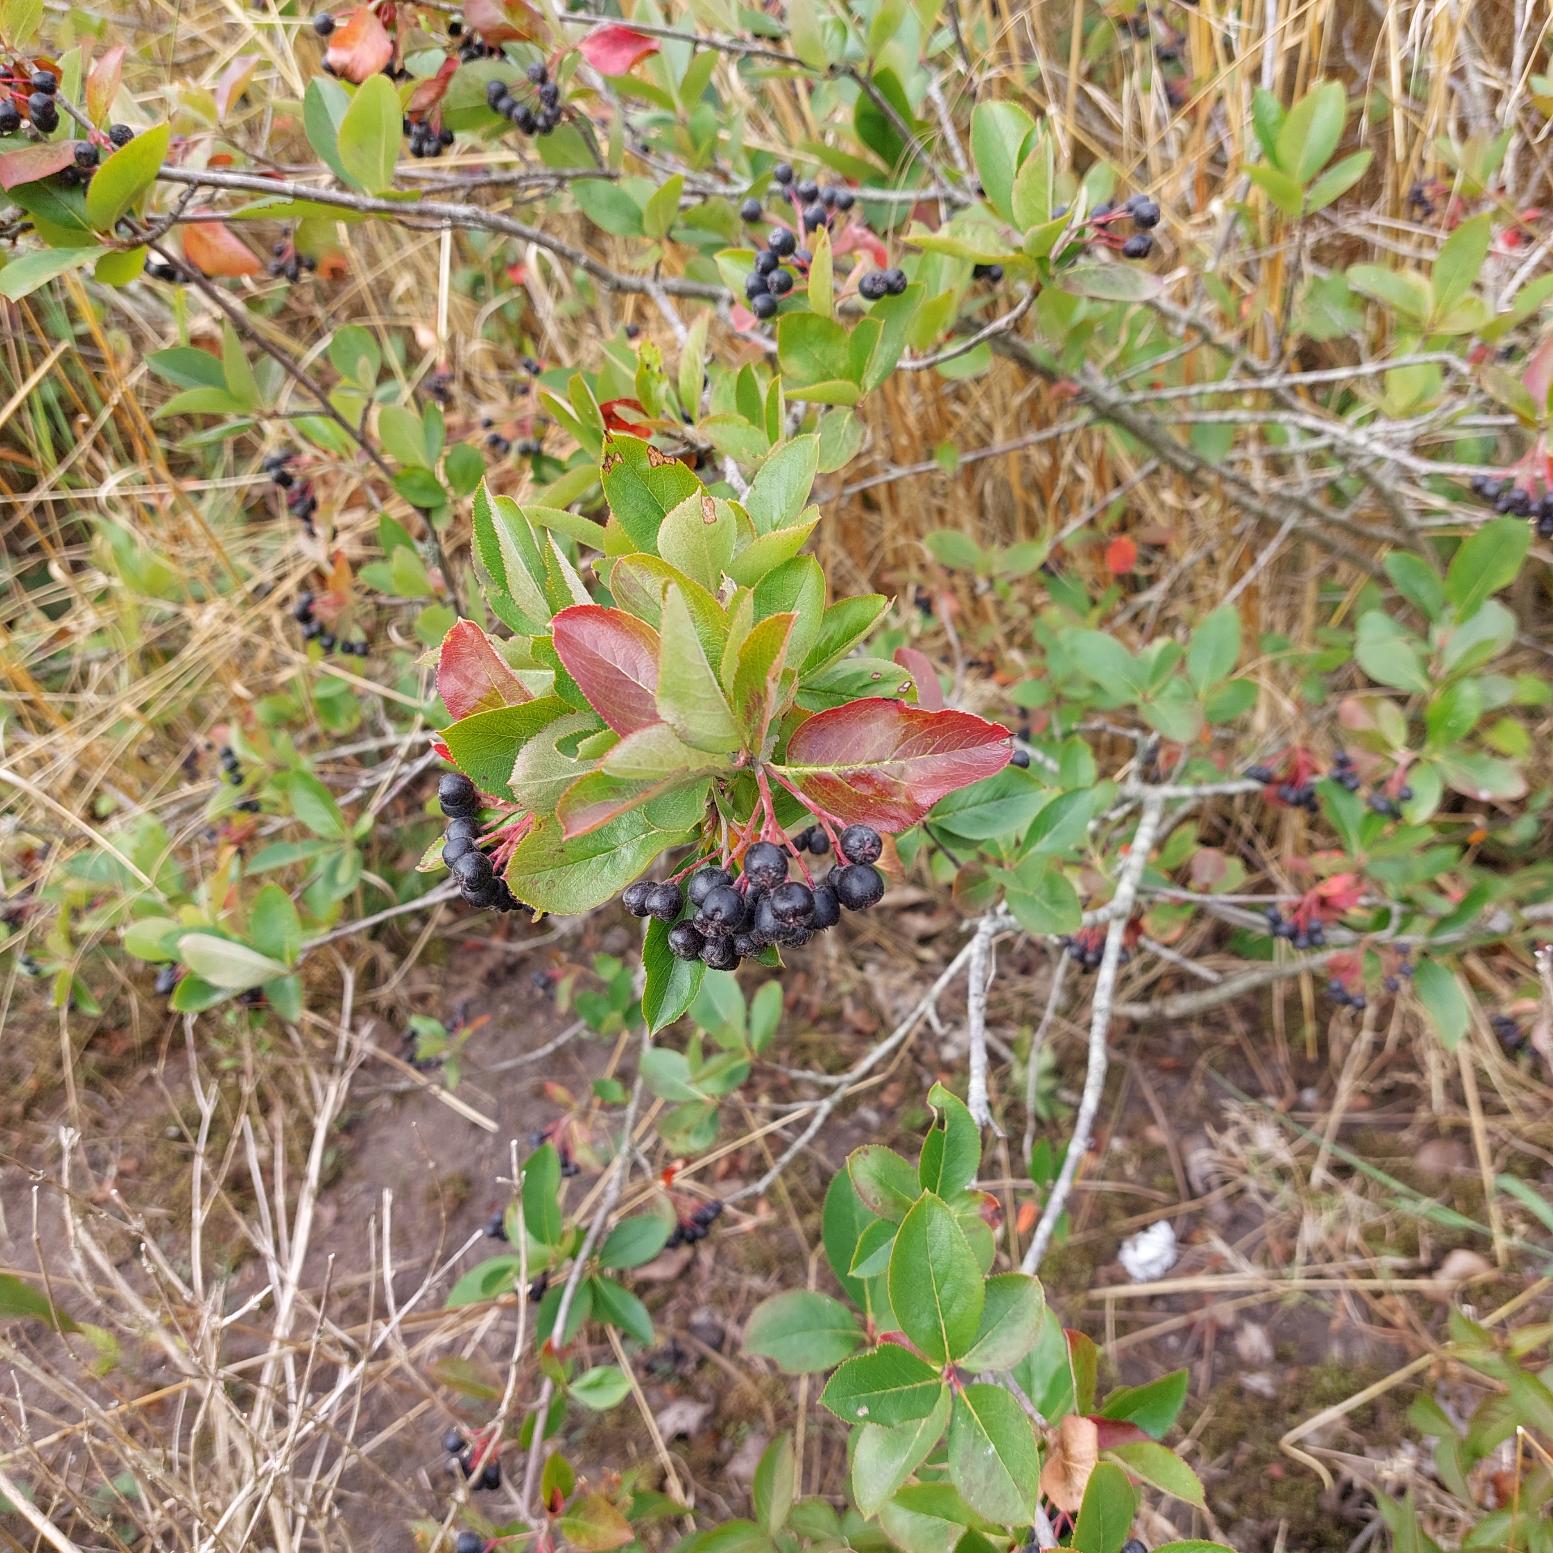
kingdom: Plantae
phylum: Tracheophyta
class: Magnoliopsida
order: Rosales
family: Rosaceae
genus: Aronia
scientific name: Aronia melanocarpa
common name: Sortfrugtet surbær
